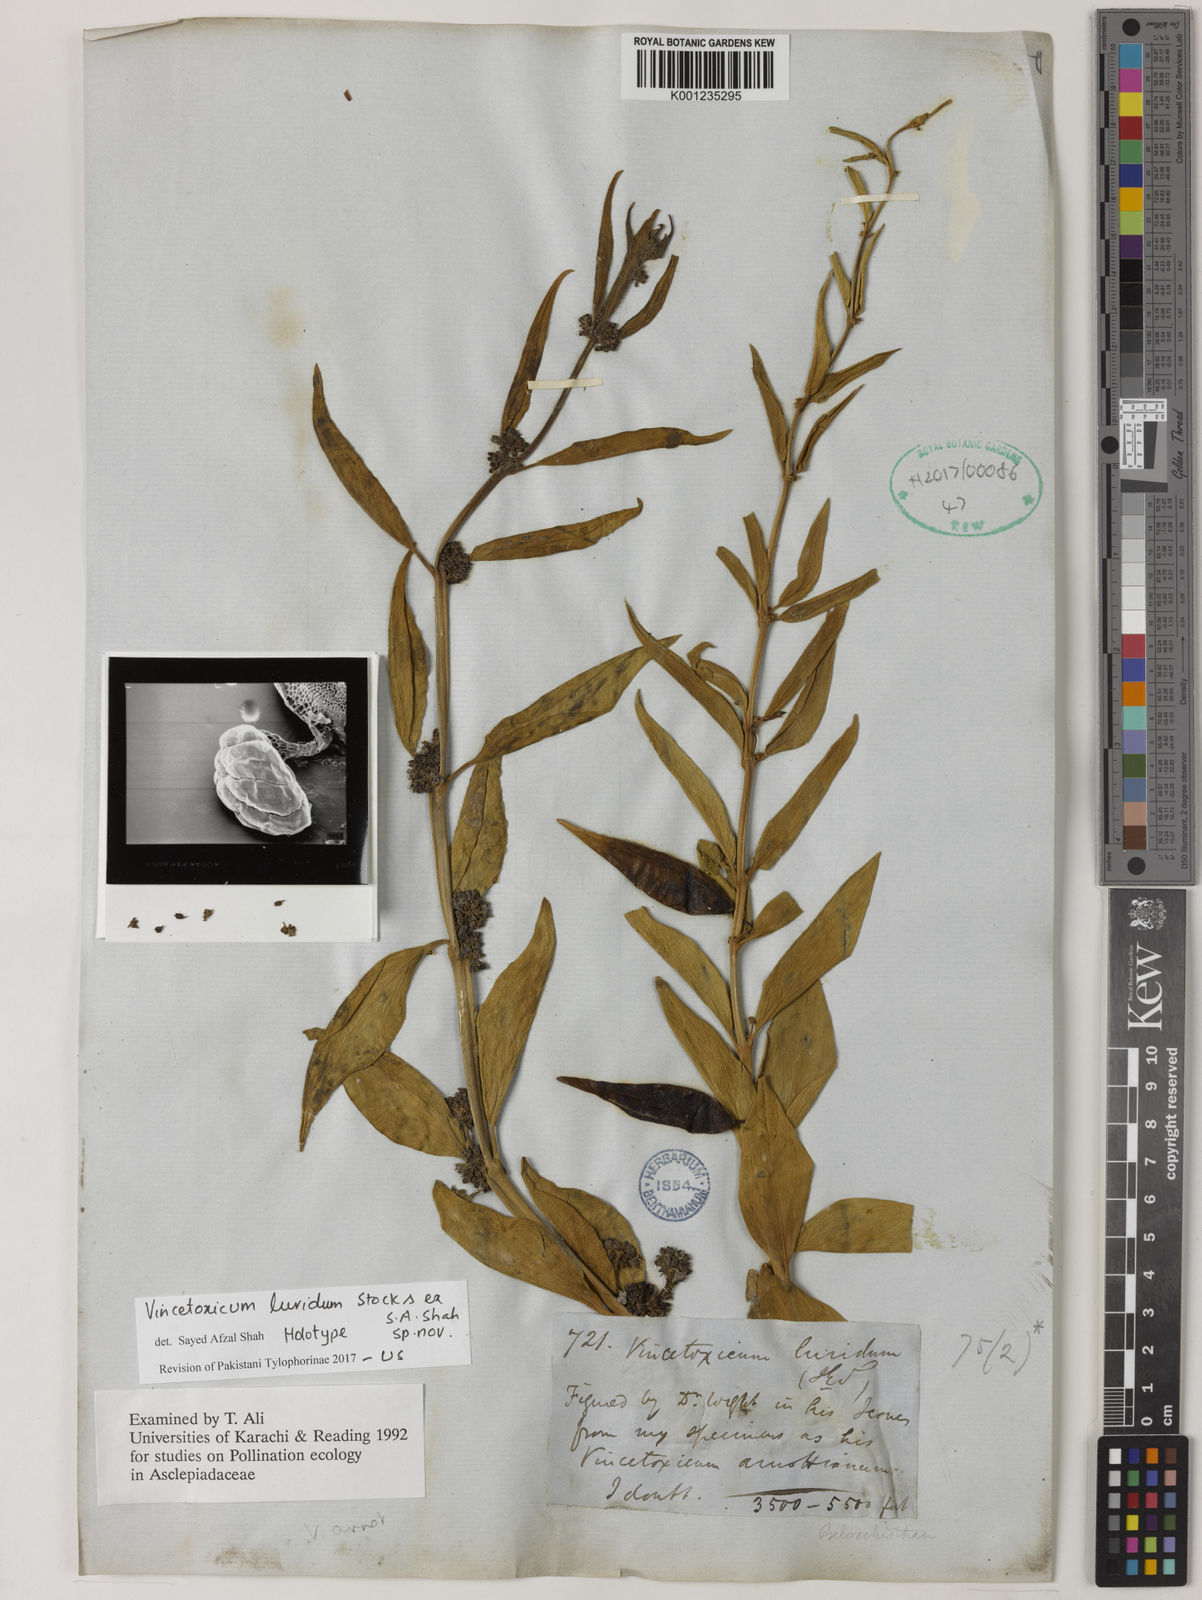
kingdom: Plantae
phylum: Tracheophyta
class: Magnoliopsida
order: Gentianales
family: Apocynaceae
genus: Vincetoxicum
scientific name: Vincetoxicum arnottianum
